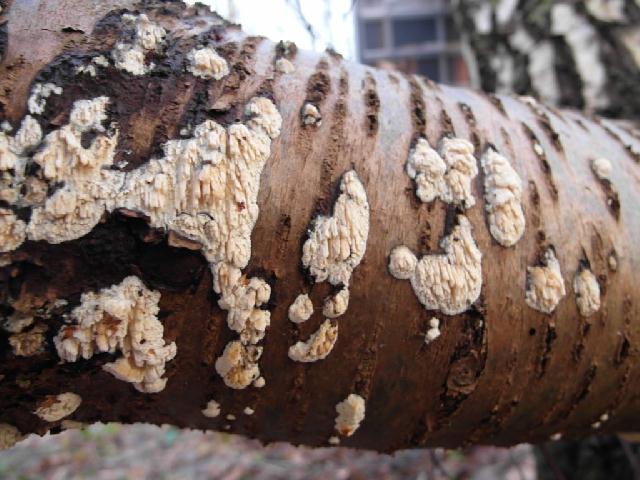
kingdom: Fungi
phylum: Basidiomycota
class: Agaricomycetes
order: Hymenochaetales
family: Schizoporaceae
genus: Xylodon
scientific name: Xylodon radula
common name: grovtandet kalkskind
